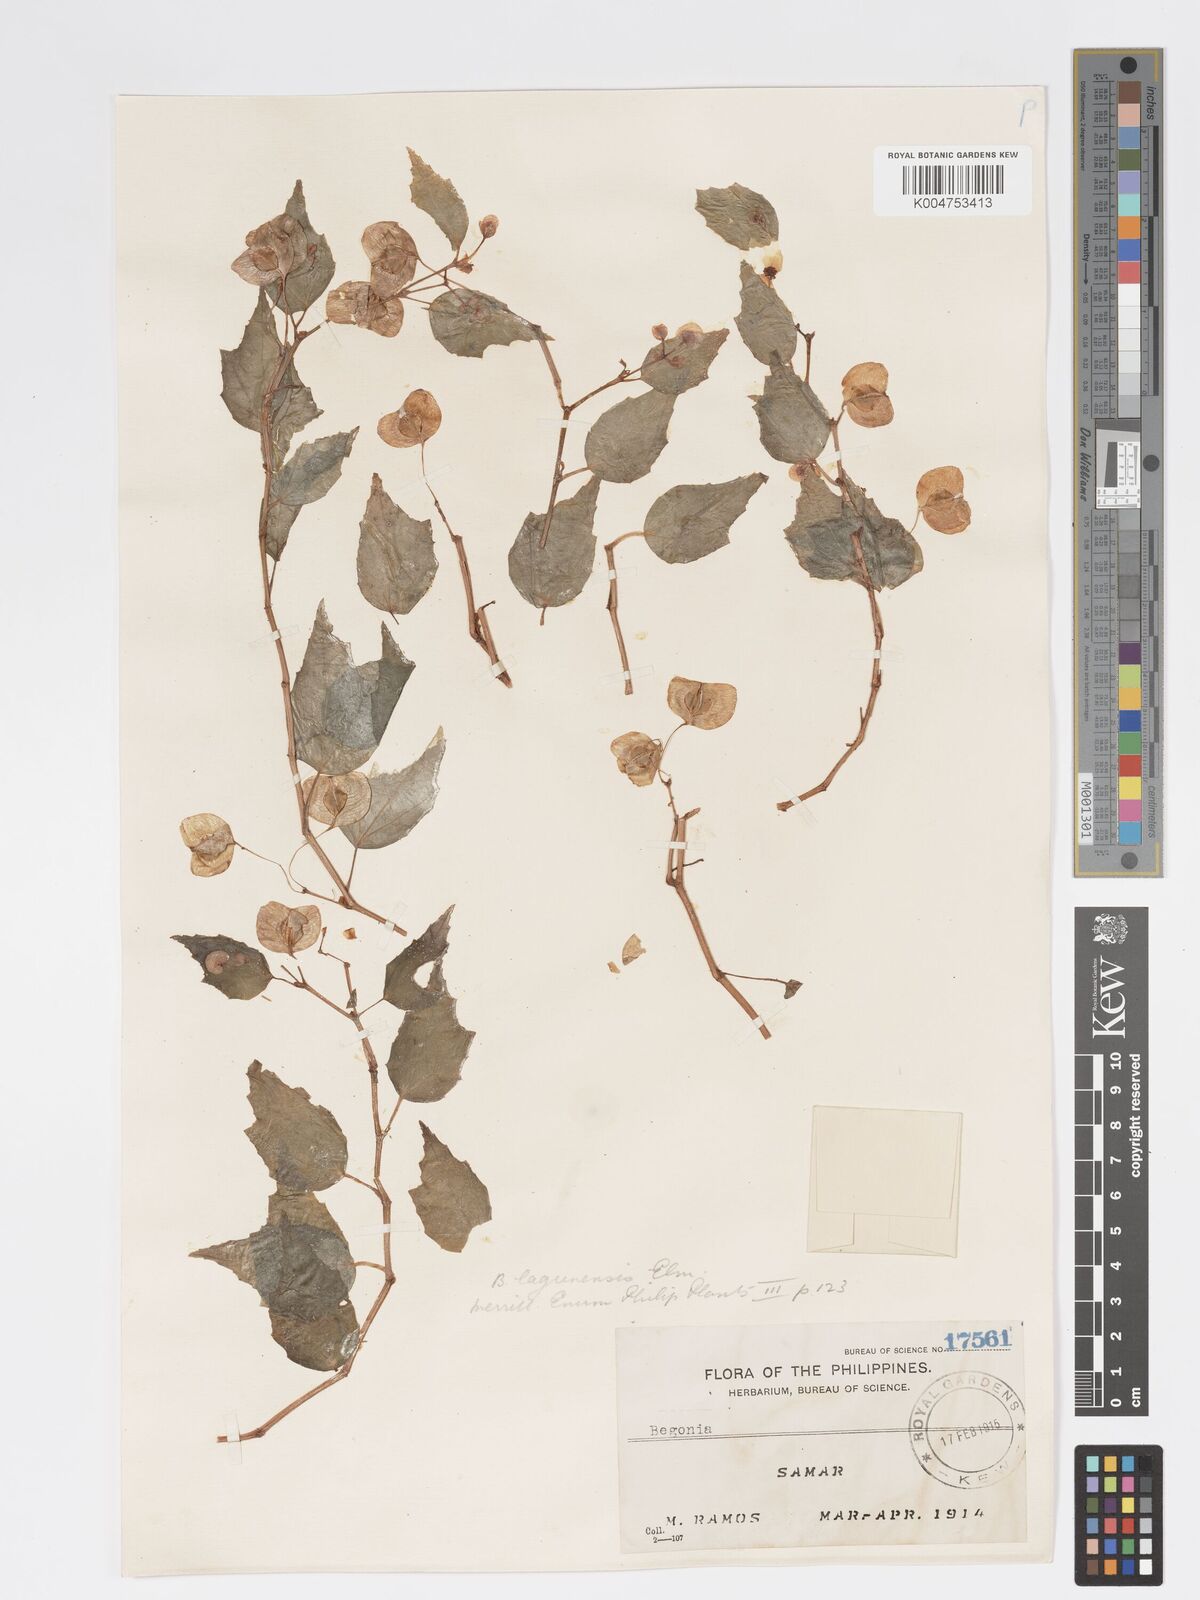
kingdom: Plantae
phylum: Tracheophyta
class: Magnoliopsida
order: Cucurbitales
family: Begoniaceae
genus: Begonia
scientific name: Begonia lagunensis
